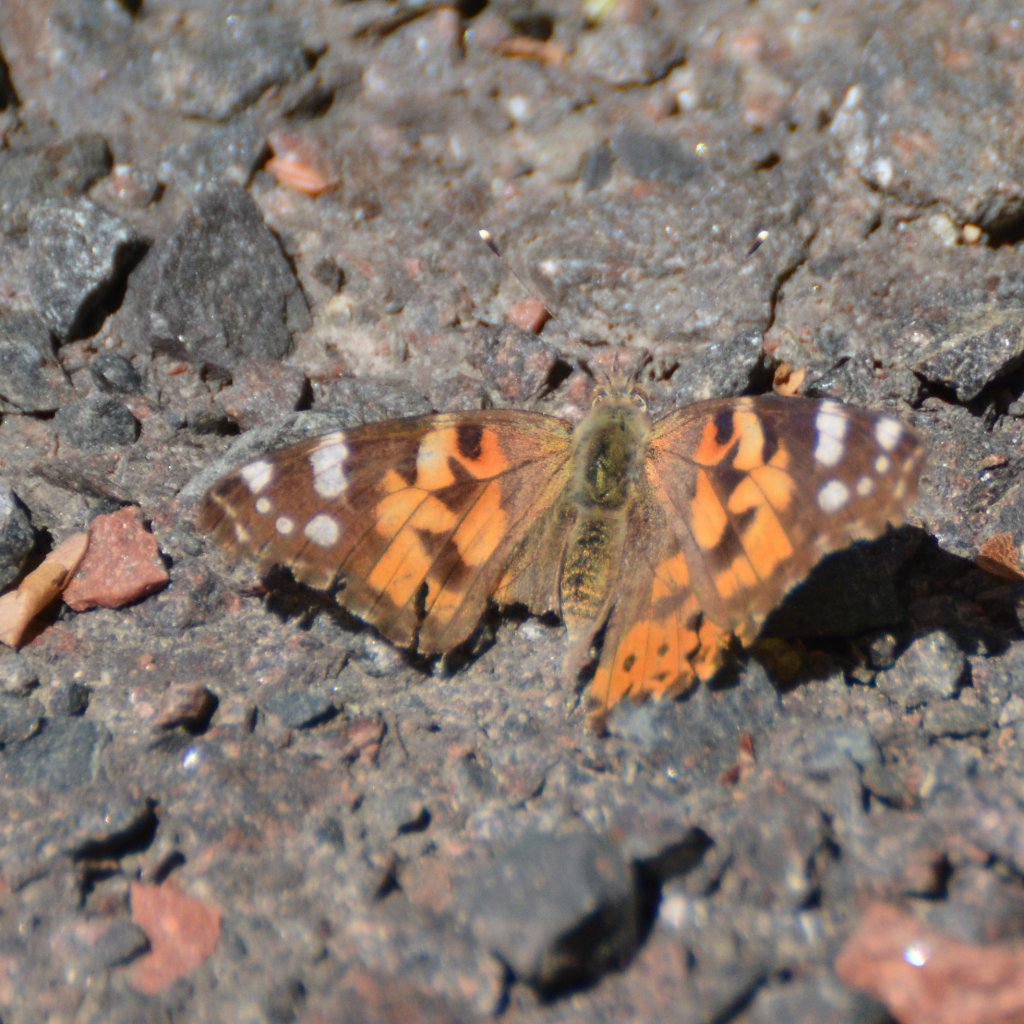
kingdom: Animalia
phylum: Arthropoda
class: Insecta
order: Lepidoptera
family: Nymphalidae
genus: Vanessa
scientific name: Vanessa cardui
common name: Painted Lady
